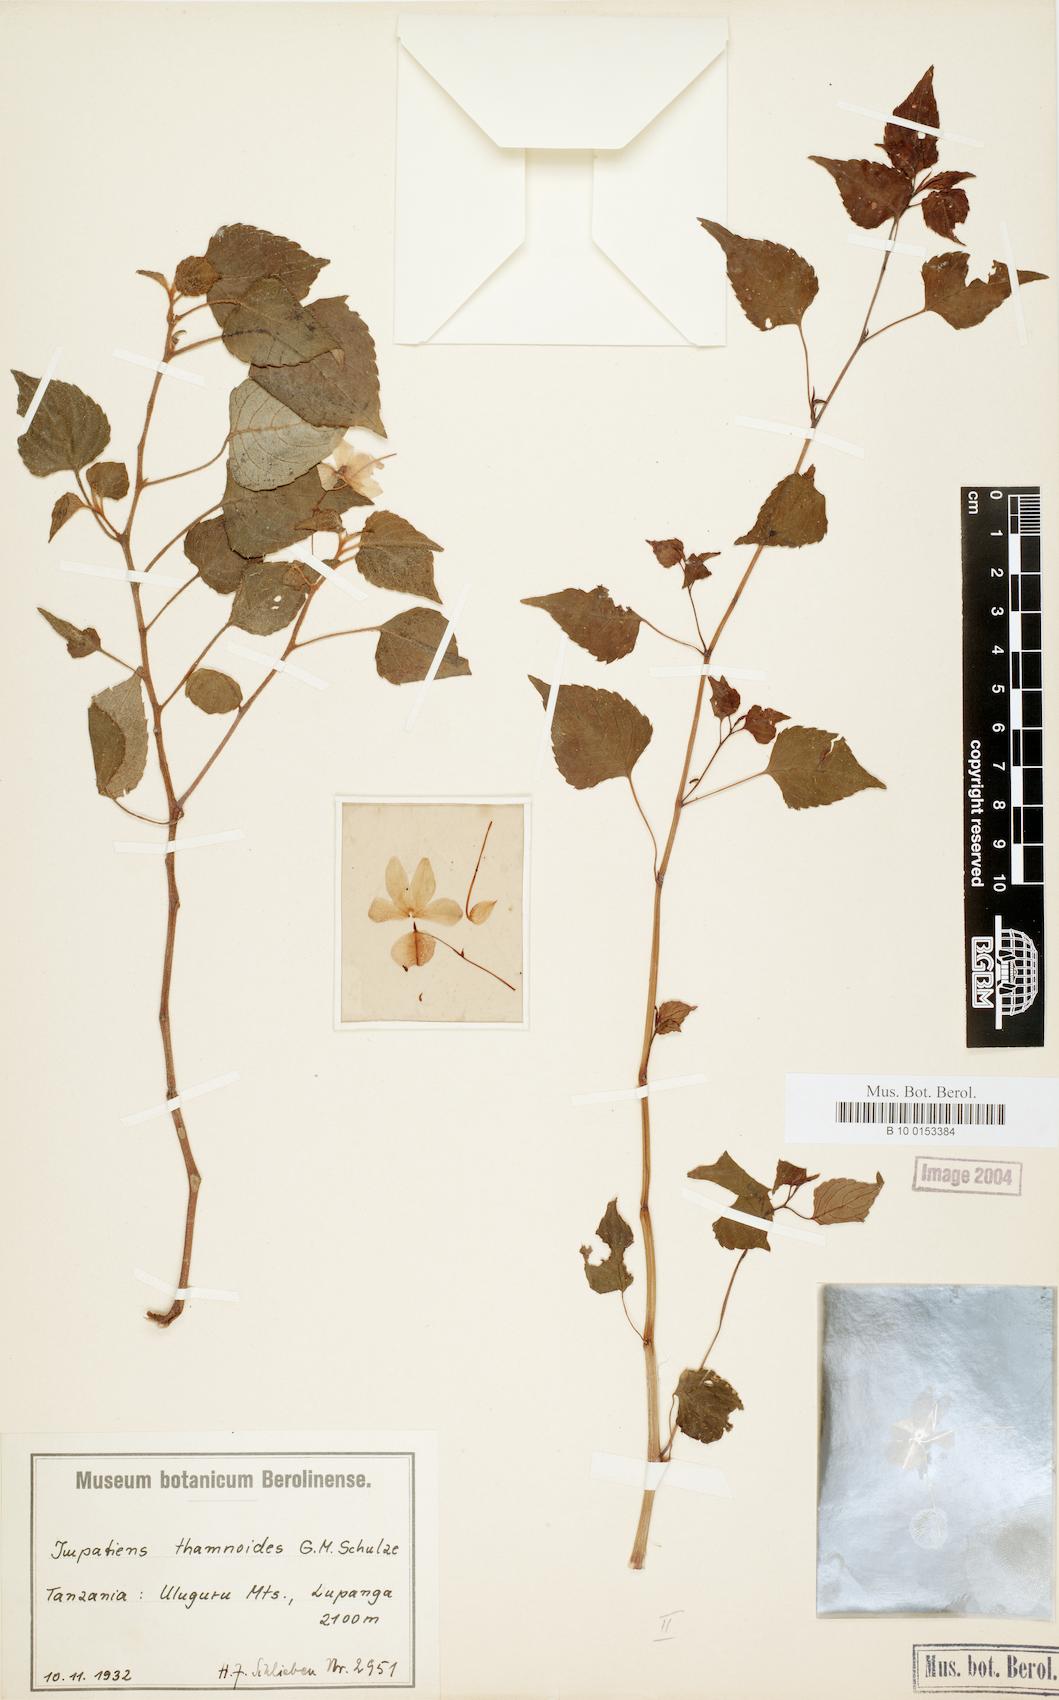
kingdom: Plantae
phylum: Tracheophyta
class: Magnoliopsida
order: Ericales
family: Balsaminaceae
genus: Impatiens
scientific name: Impatiens thamnoidea
